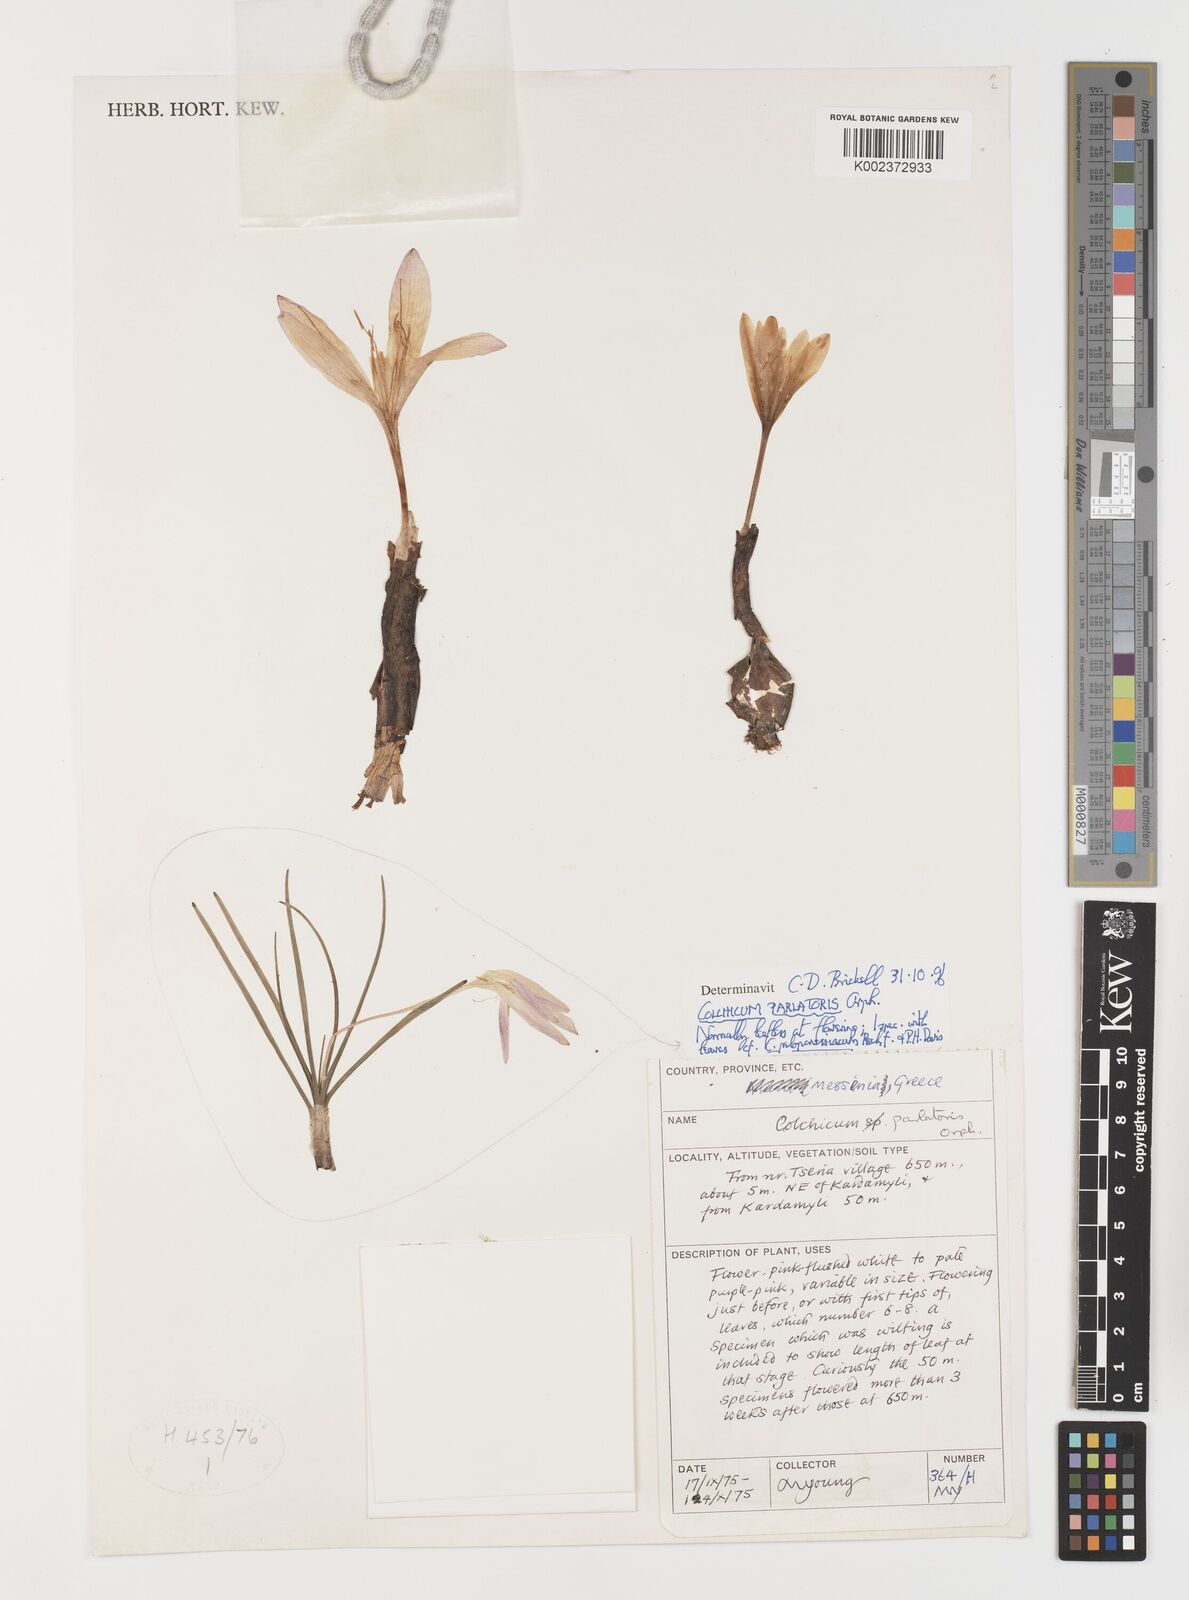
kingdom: Plantae
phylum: Tracheophyta
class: Liliopsida
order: Liliales
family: Colchicaceae
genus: Colchicum
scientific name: Colchicum parlatoris
